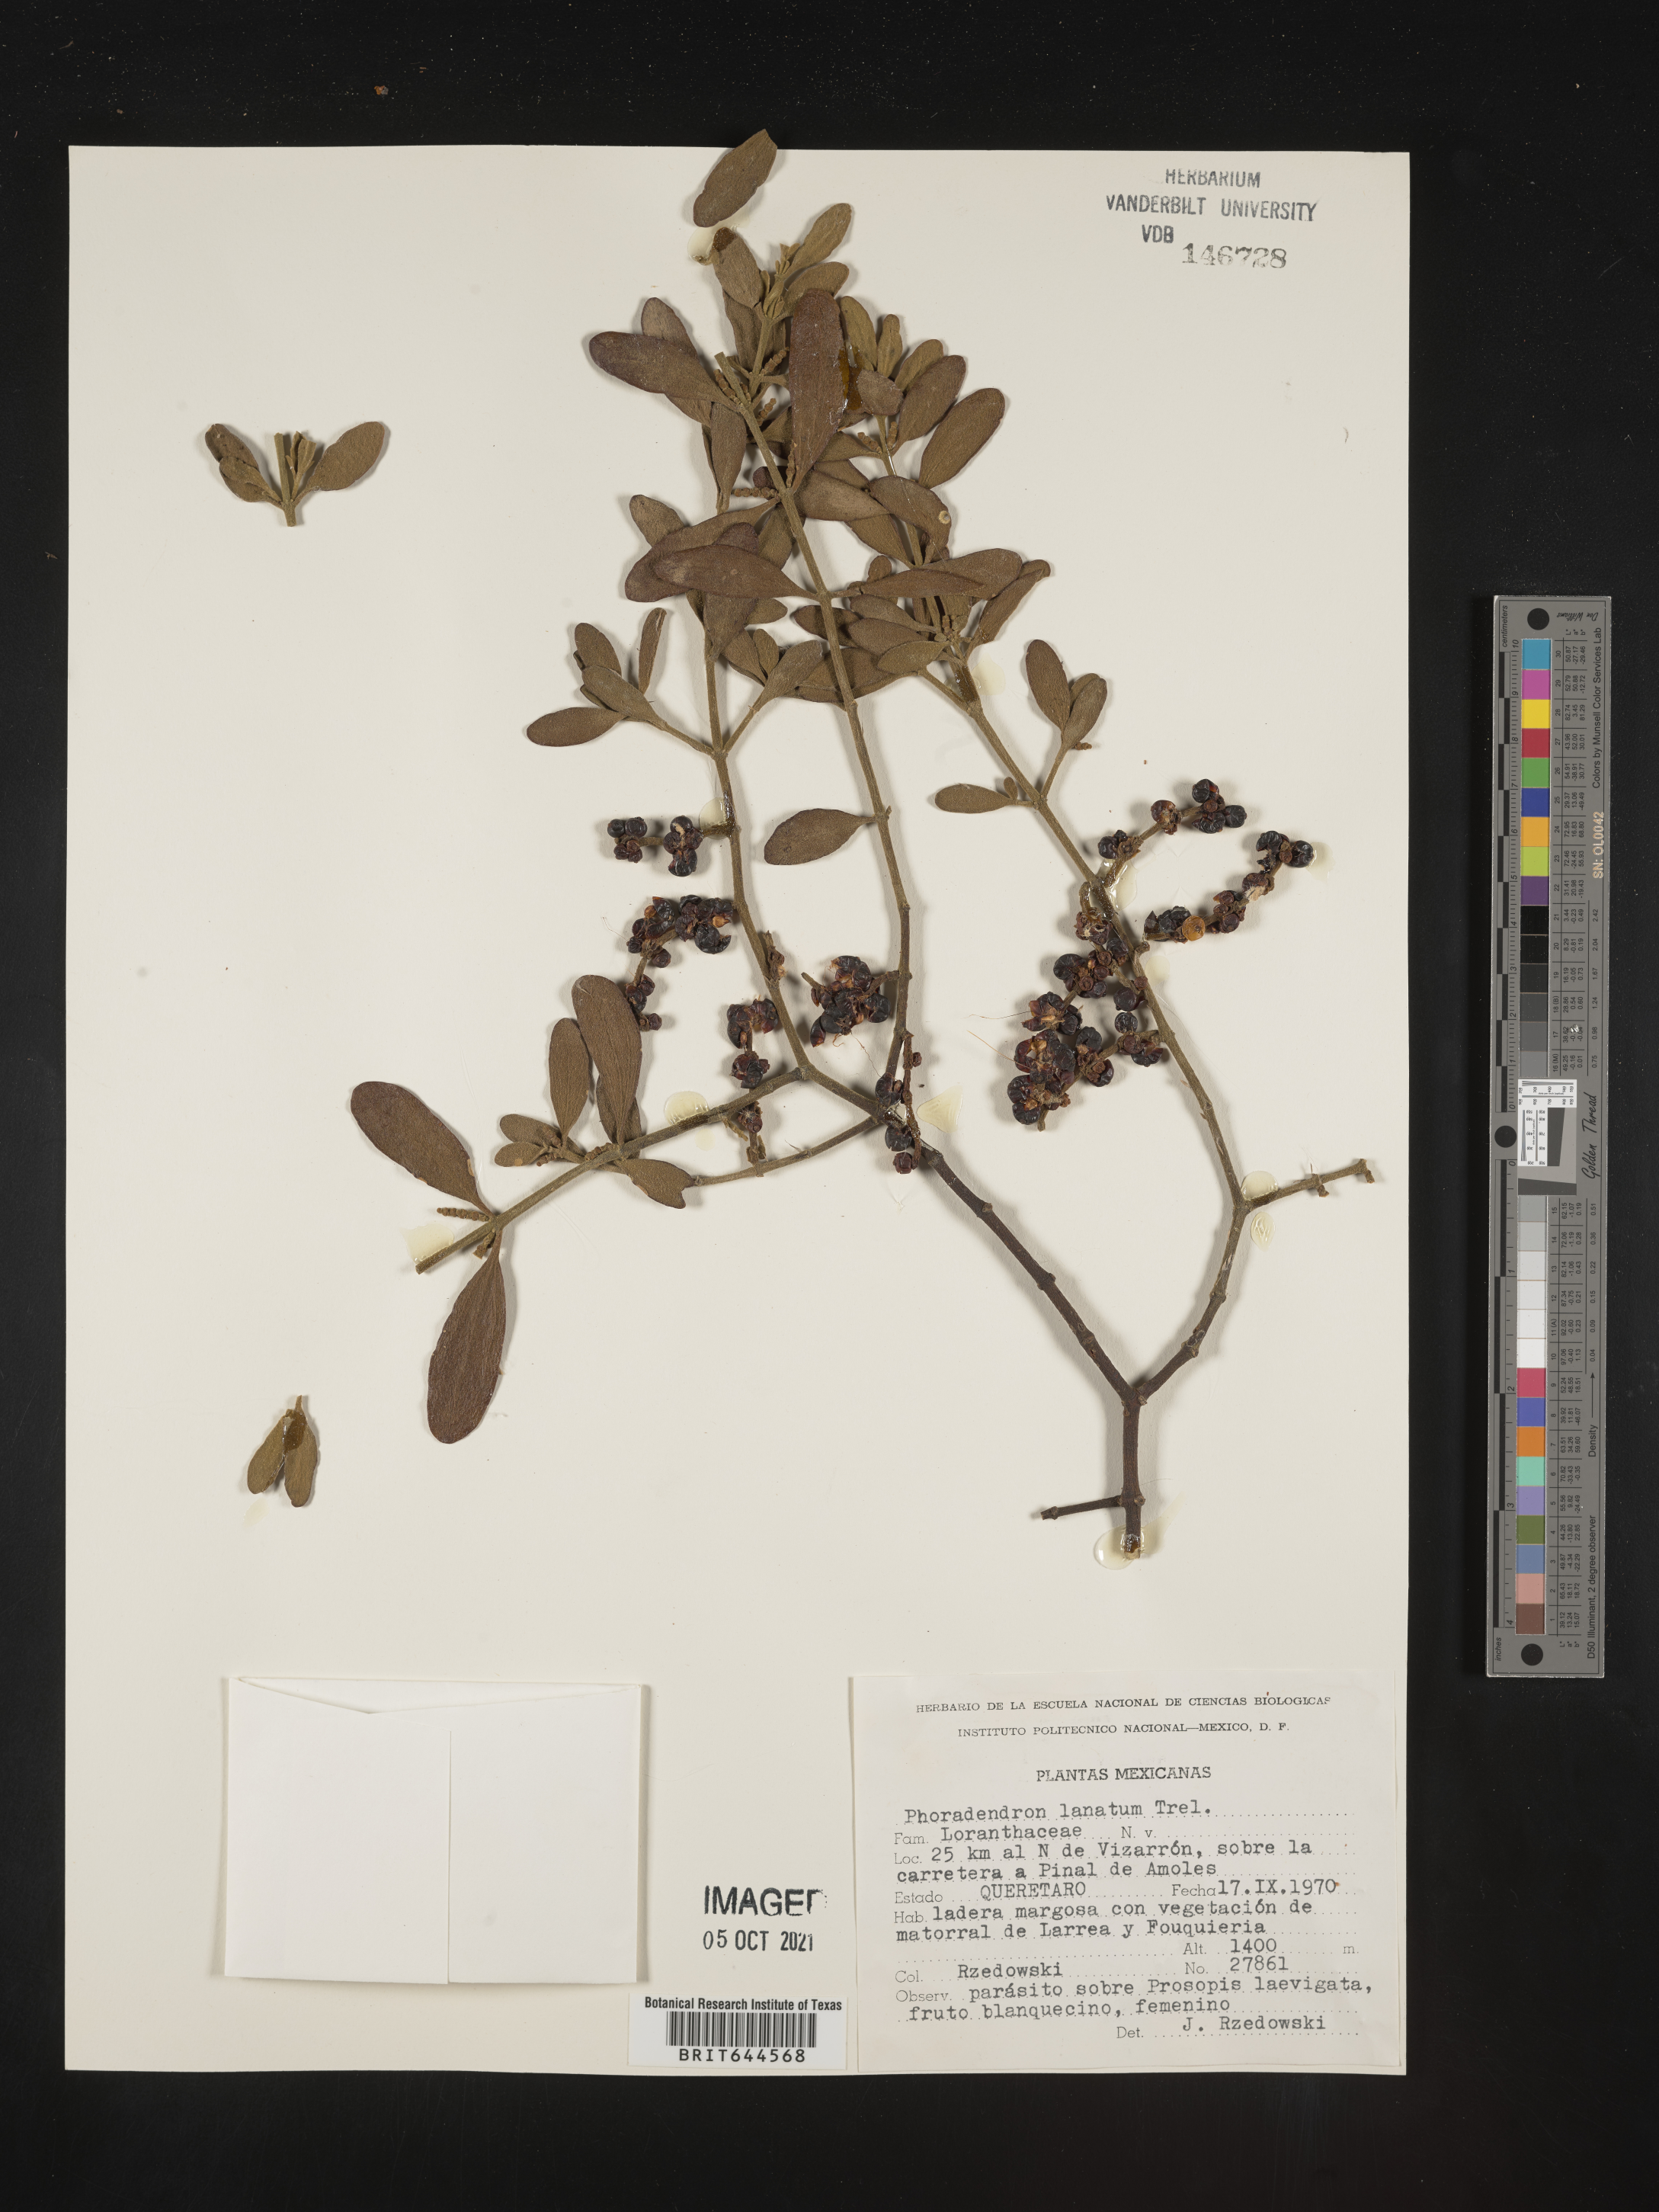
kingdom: Plantae
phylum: Tracheophyta
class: Magnoliopsida
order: Santalales
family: Viscaceae
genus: Phoradendron
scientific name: Phoradendron
